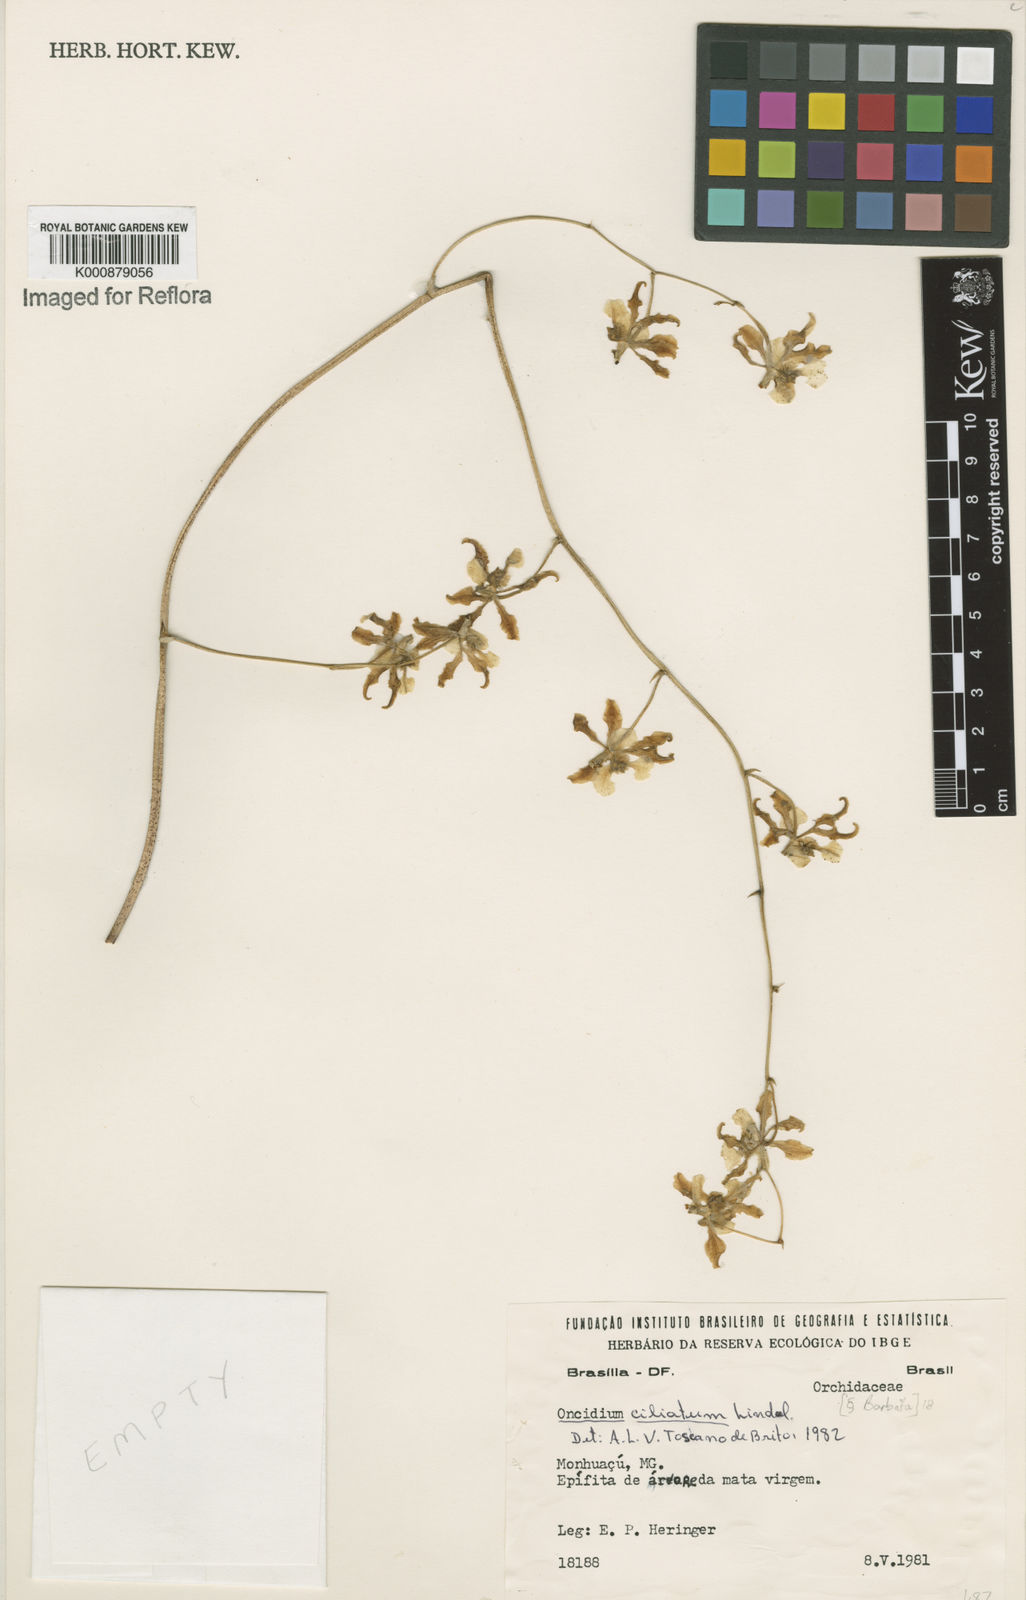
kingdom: Plantae
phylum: Tracheophyta
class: Liliopsida
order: Asparagales
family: Orchidaceae
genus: Gomesa
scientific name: Gomesa ciliata
